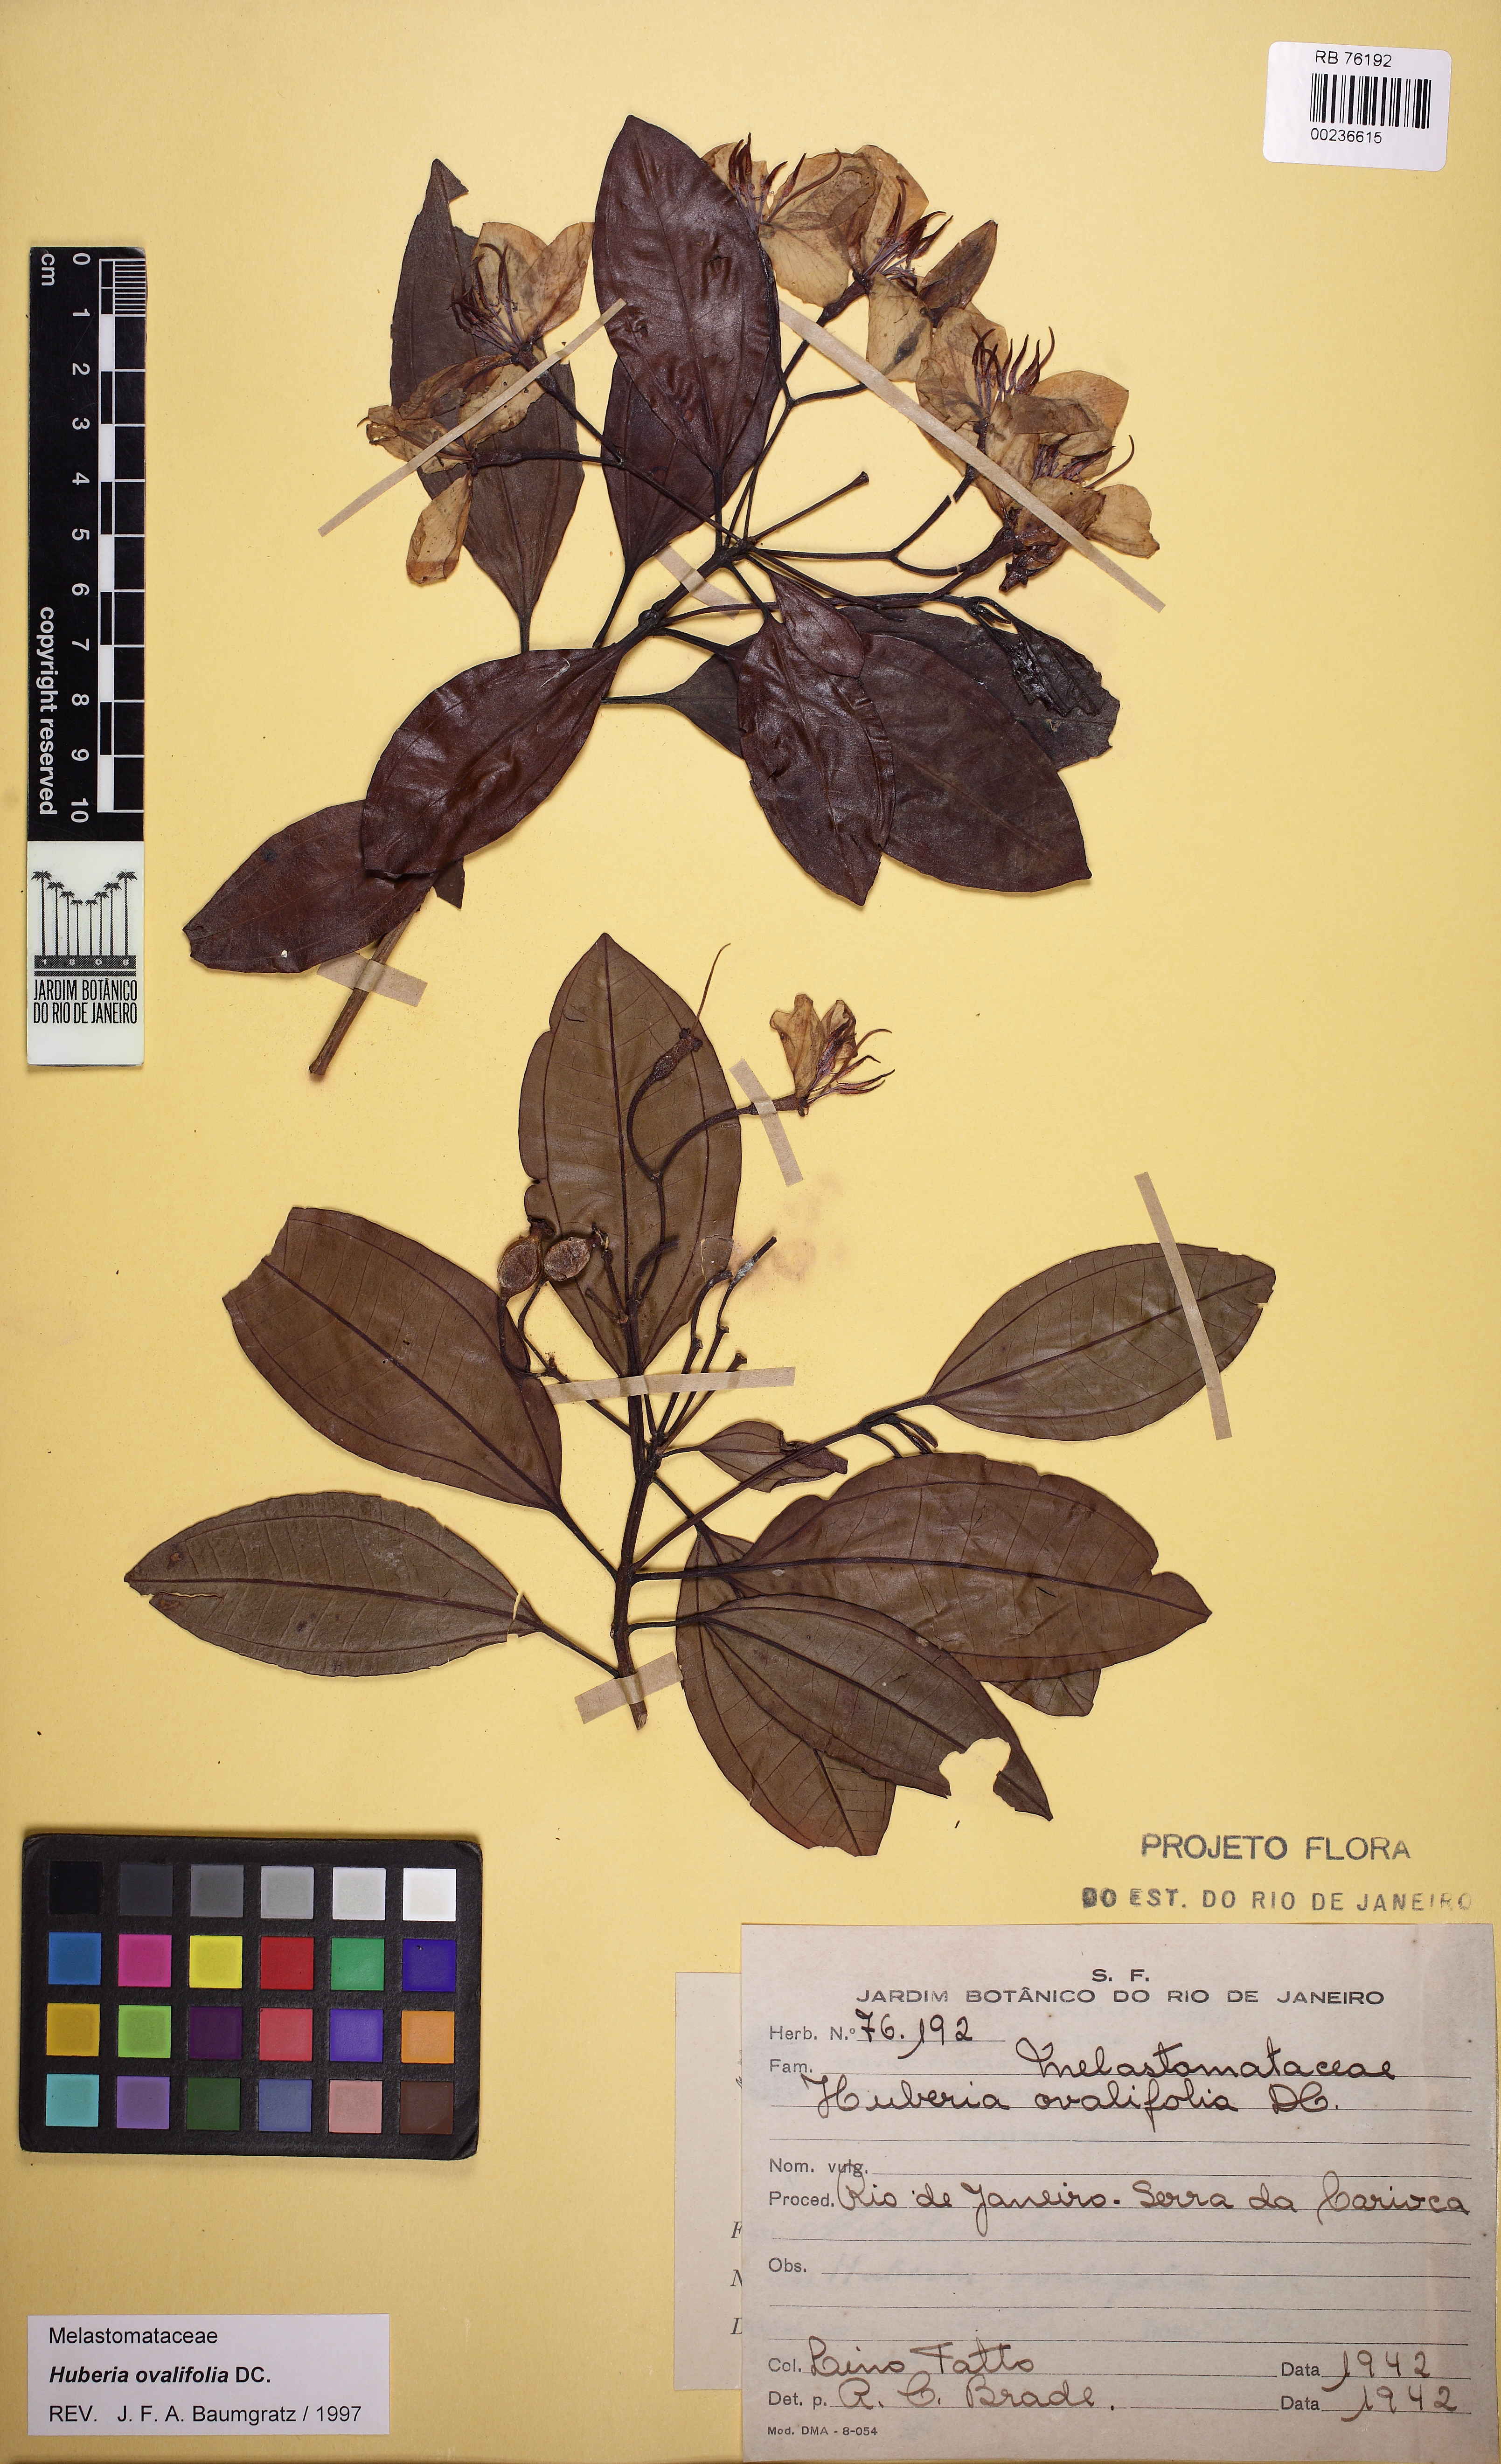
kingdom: Plantae
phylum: Tracheophyta
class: Magnoliopsida
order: Myrtales
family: Melastomataceae
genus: Huberia
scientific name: Huberia ovalifolia
